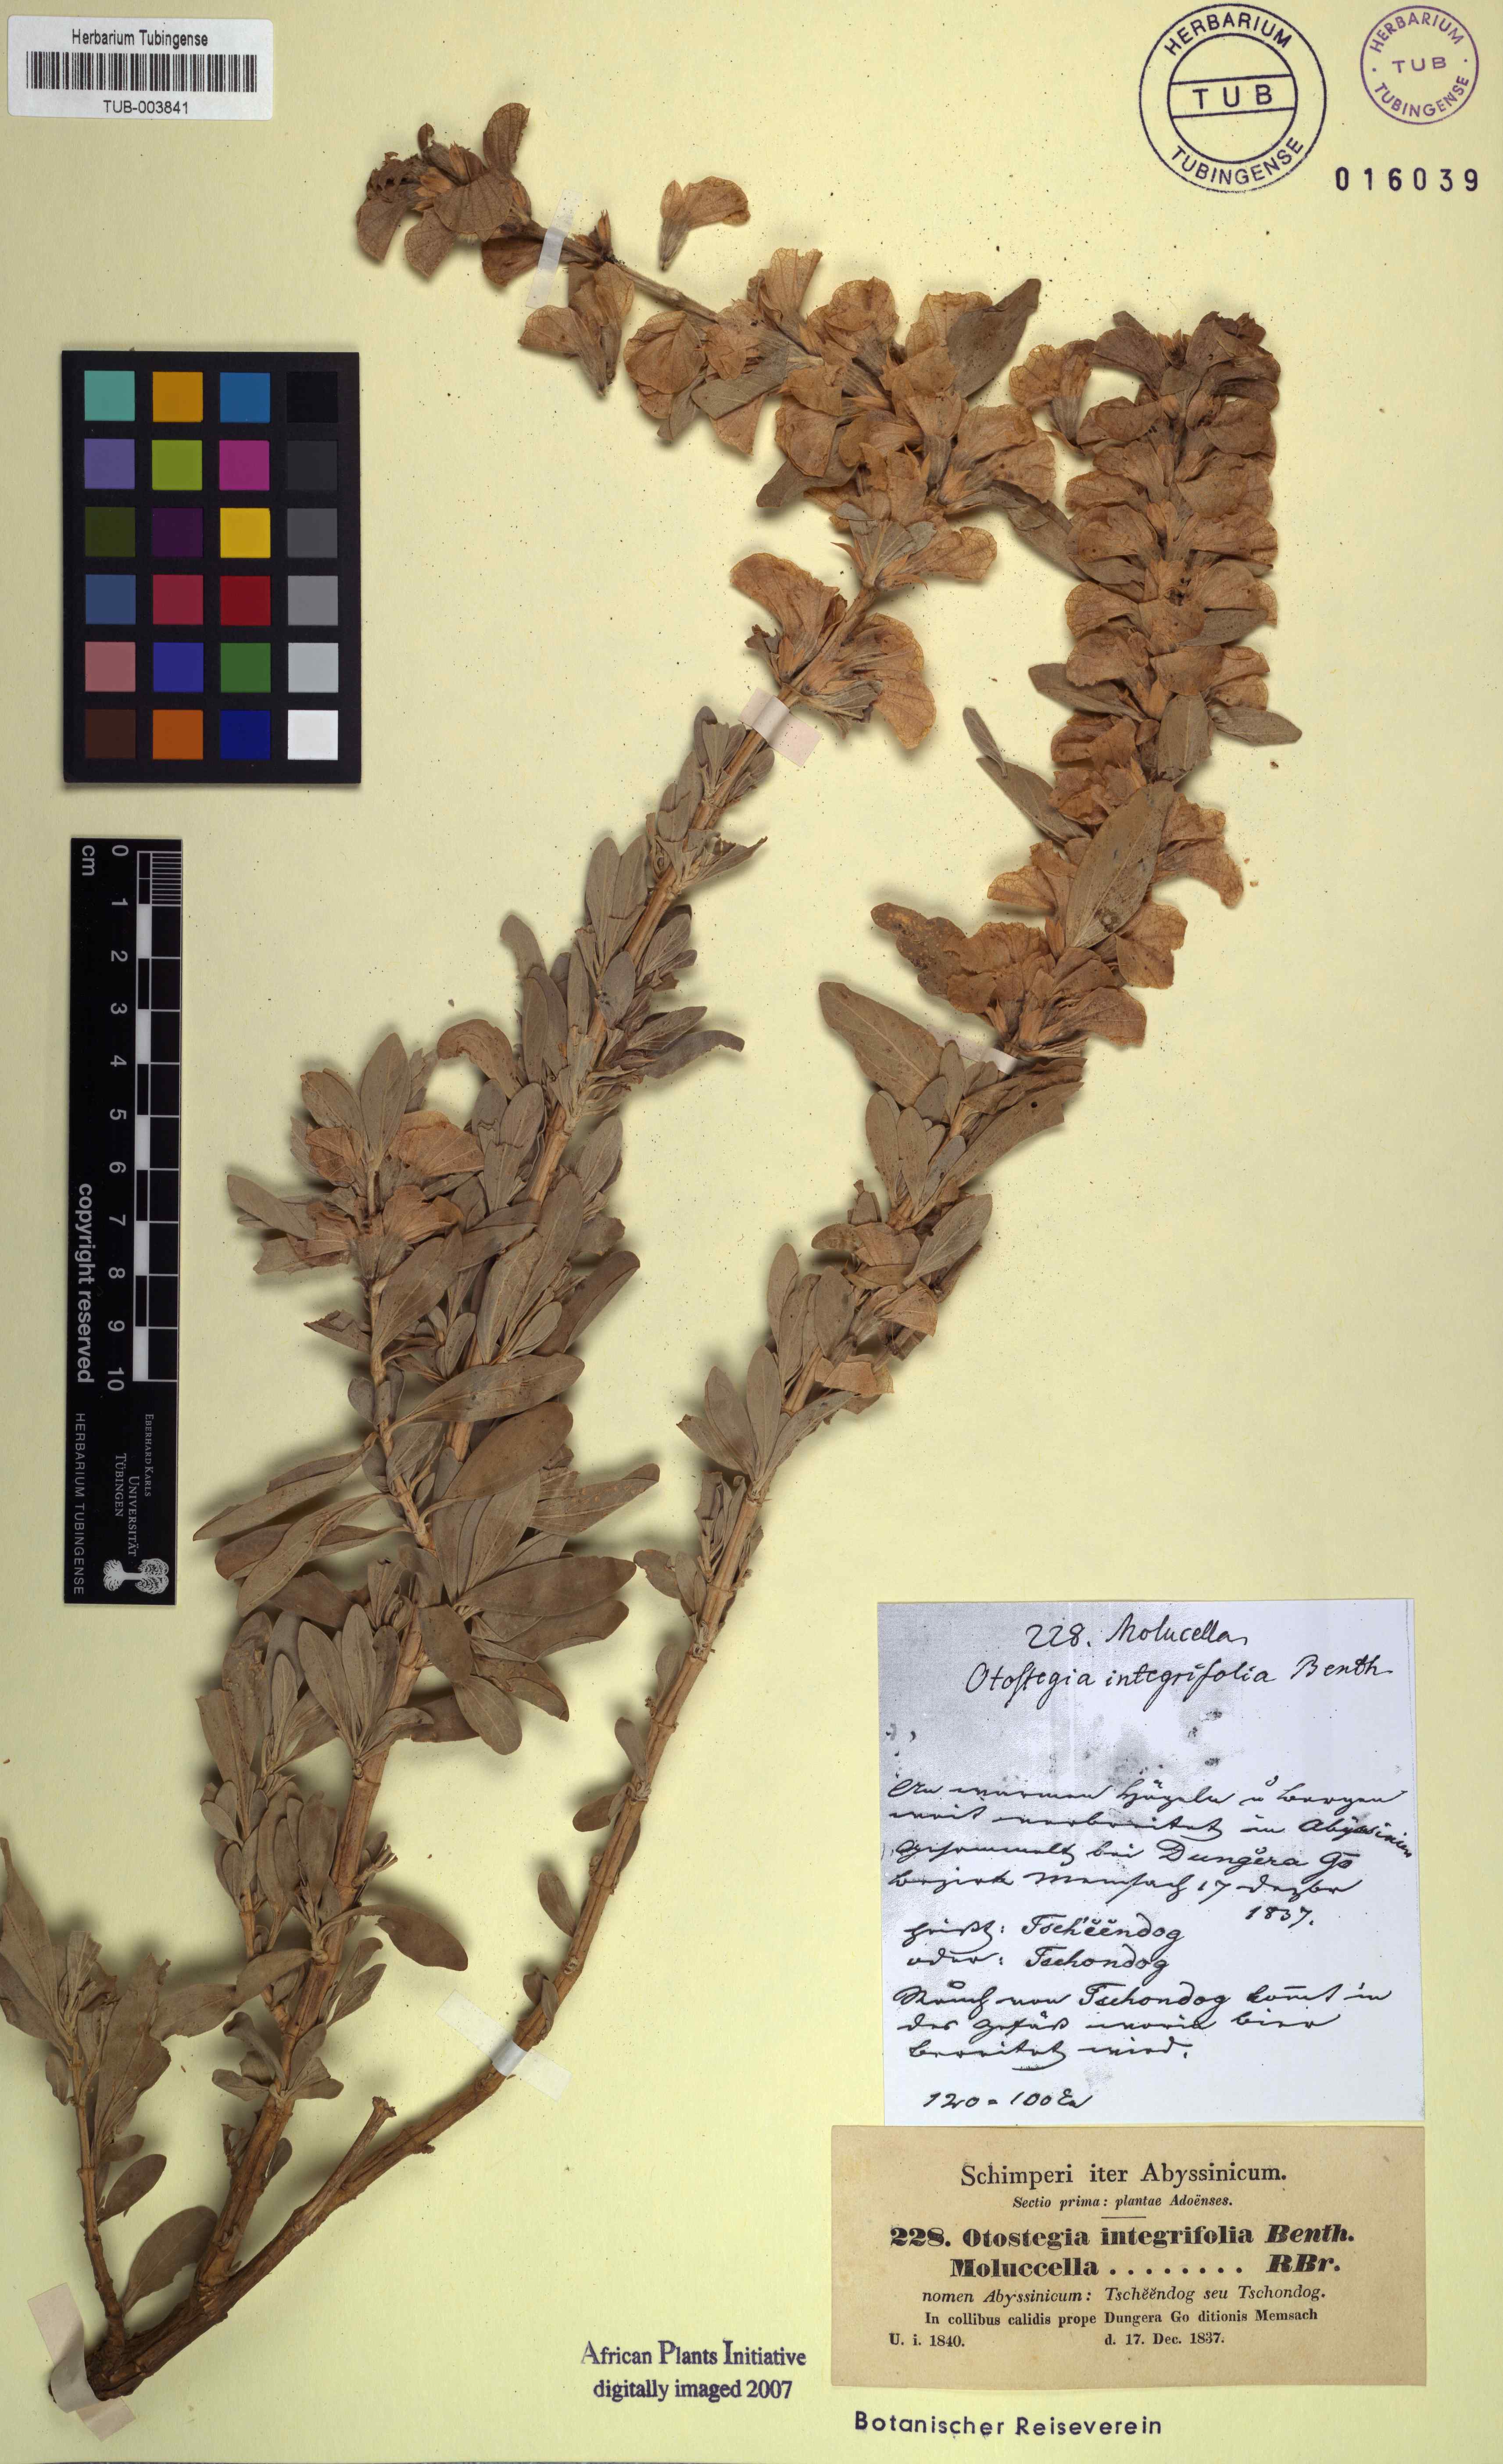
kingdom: Plantae
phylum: Tracheophyta
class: Magnoliopsida
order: Lamiales
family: Lamiaceae
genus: Rydingia
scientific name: Rydingia integrifolia
